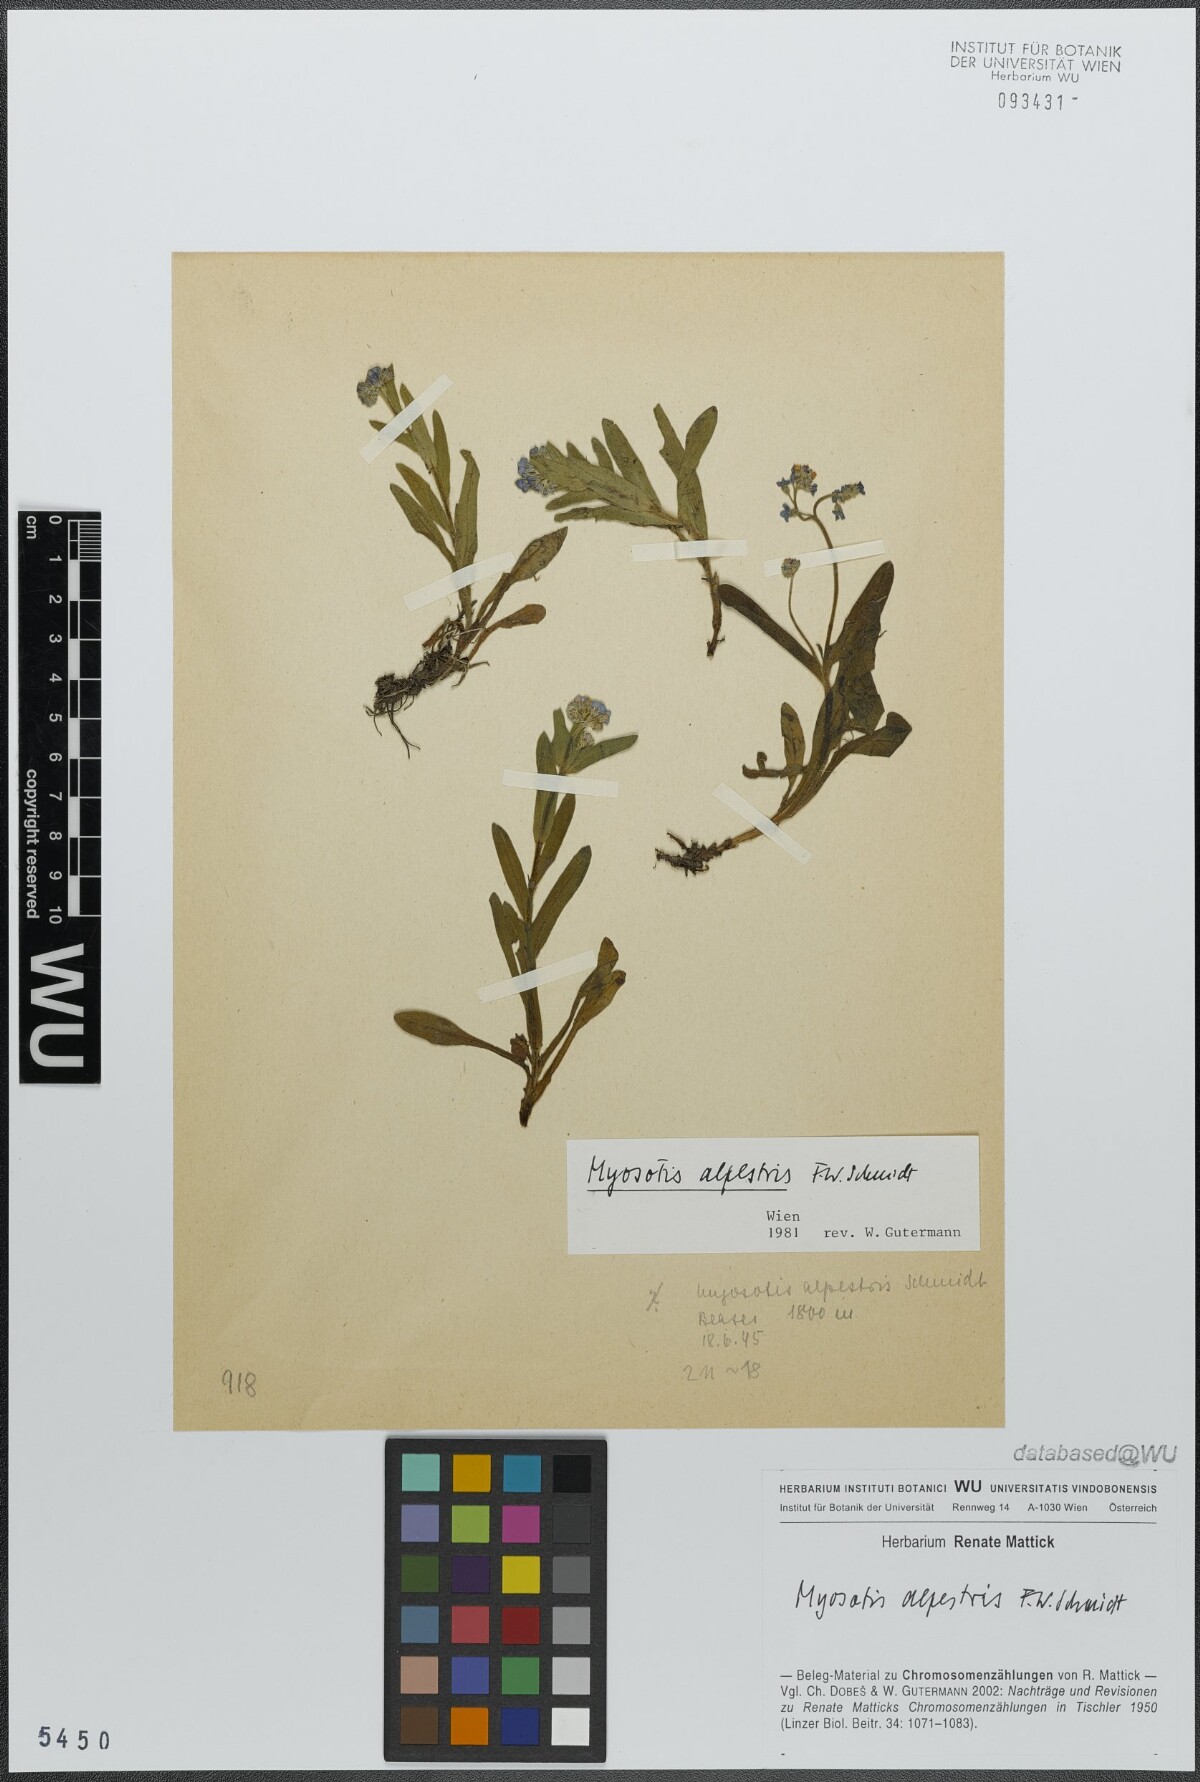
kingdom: Plantae
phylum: Tracheophyta
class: Magnoliopsida
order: Boraginales
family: Boraginaceae
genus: Myosotis
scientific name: Myosotis alpestris
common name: Alpine forget-me-not
